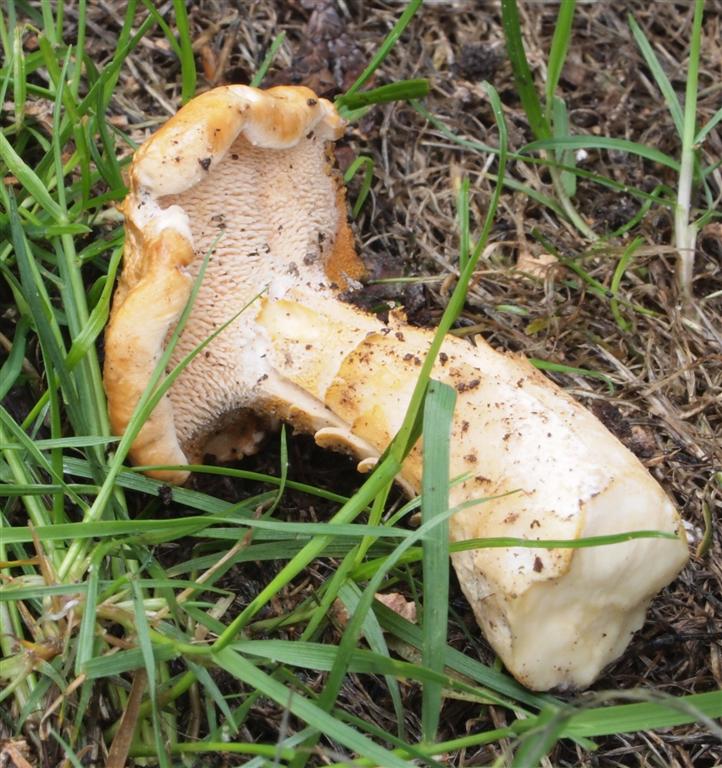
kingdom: Fungi
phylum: Basidiomycota
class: Agaricomycetes
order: Cantharellales
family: Hydnaceae
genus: Hydnum
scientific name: Hydnum rufescens
